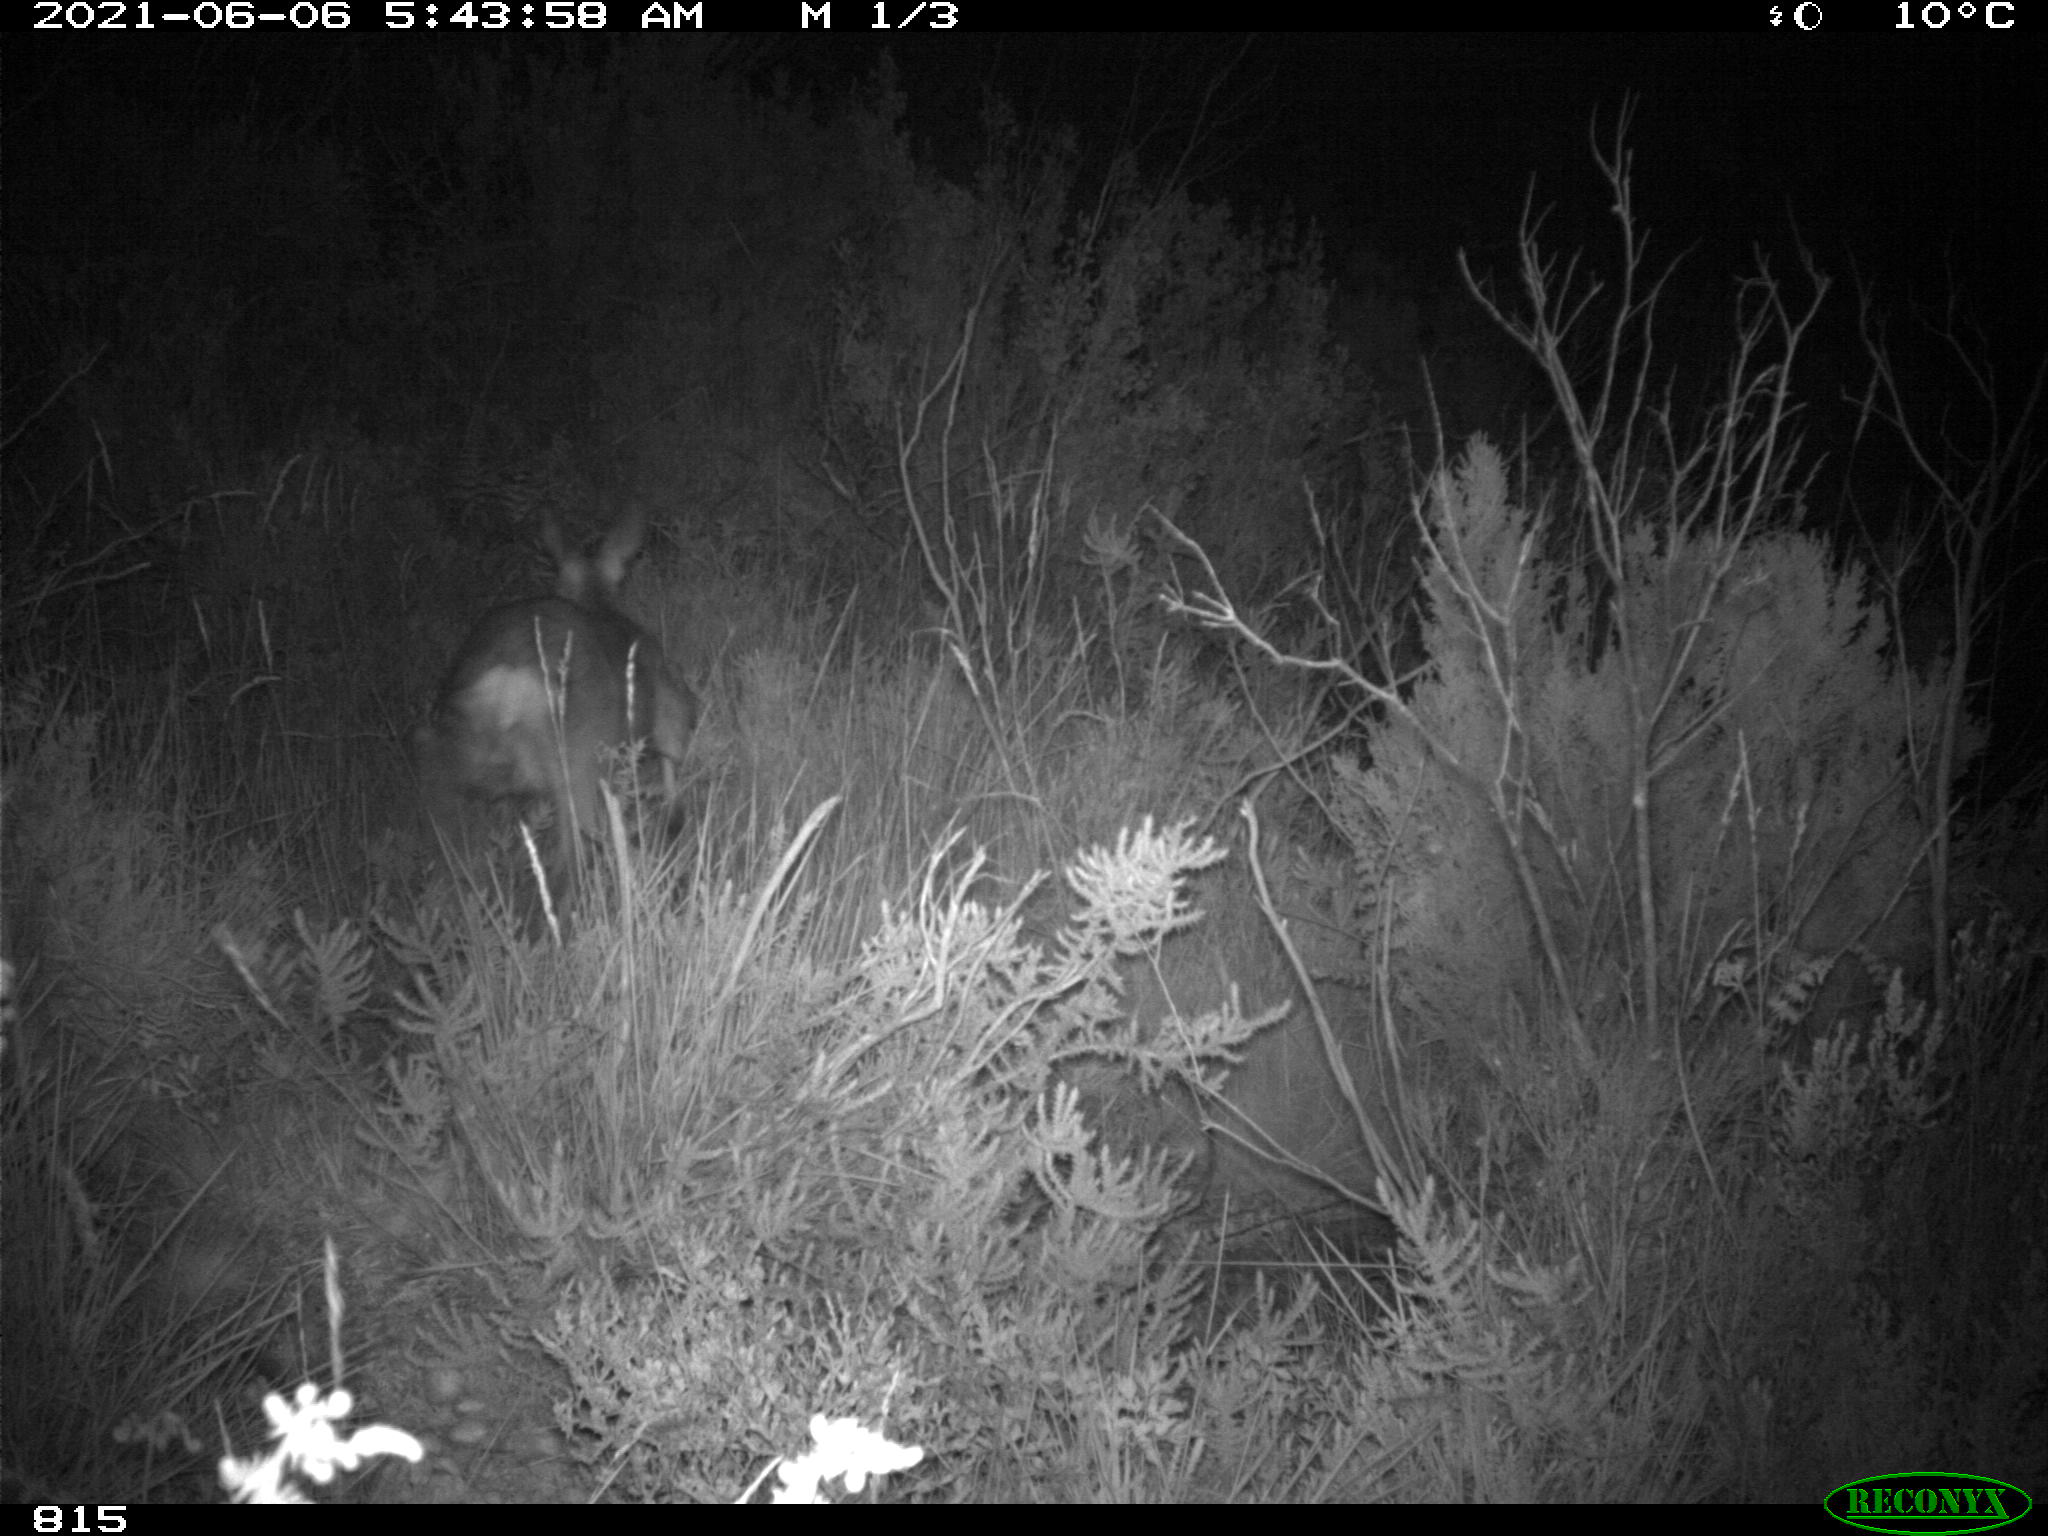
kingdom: Animalia
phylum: Chordata
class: Mammalia
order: Artiodactyla
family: Cervidae
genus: Capreolus
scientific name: Capreolus capreolus
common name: Western roe deer
